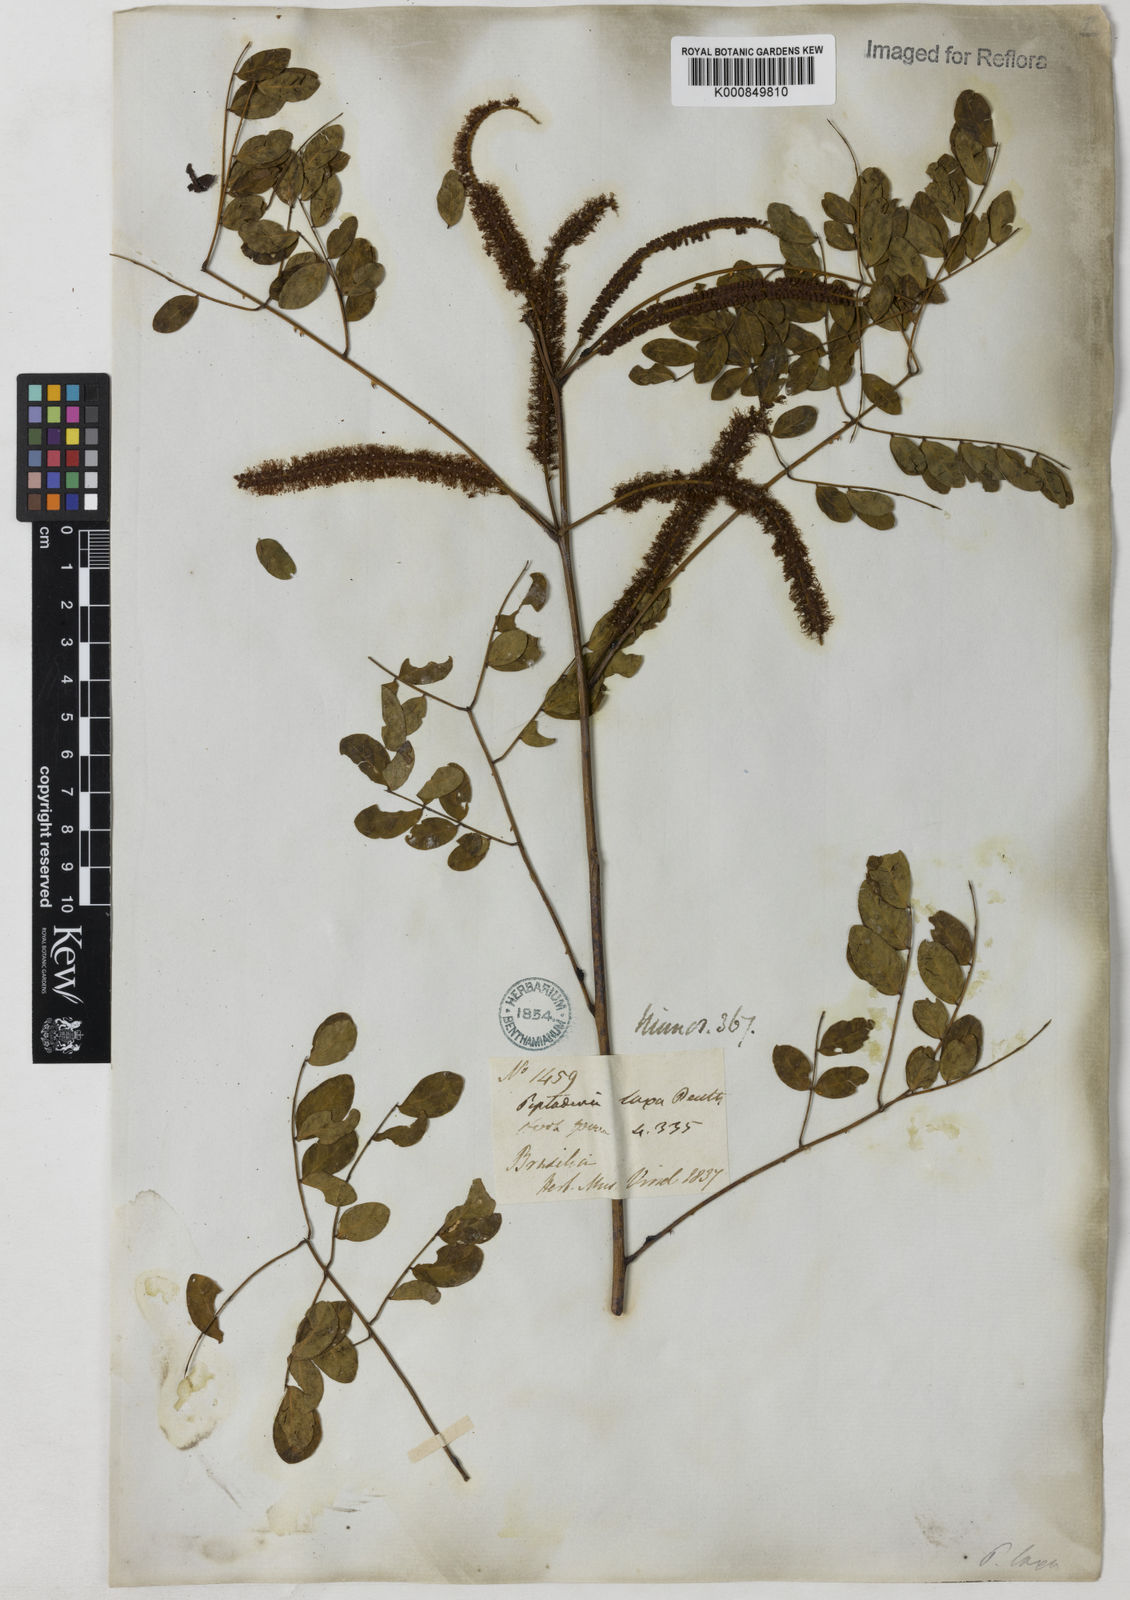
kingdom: Plantae
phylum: Tracheophyta
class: Magnoliopsida
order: Fabales
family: Fabaceae
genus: Piptadenia
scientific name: Piptadenia adiantoides
